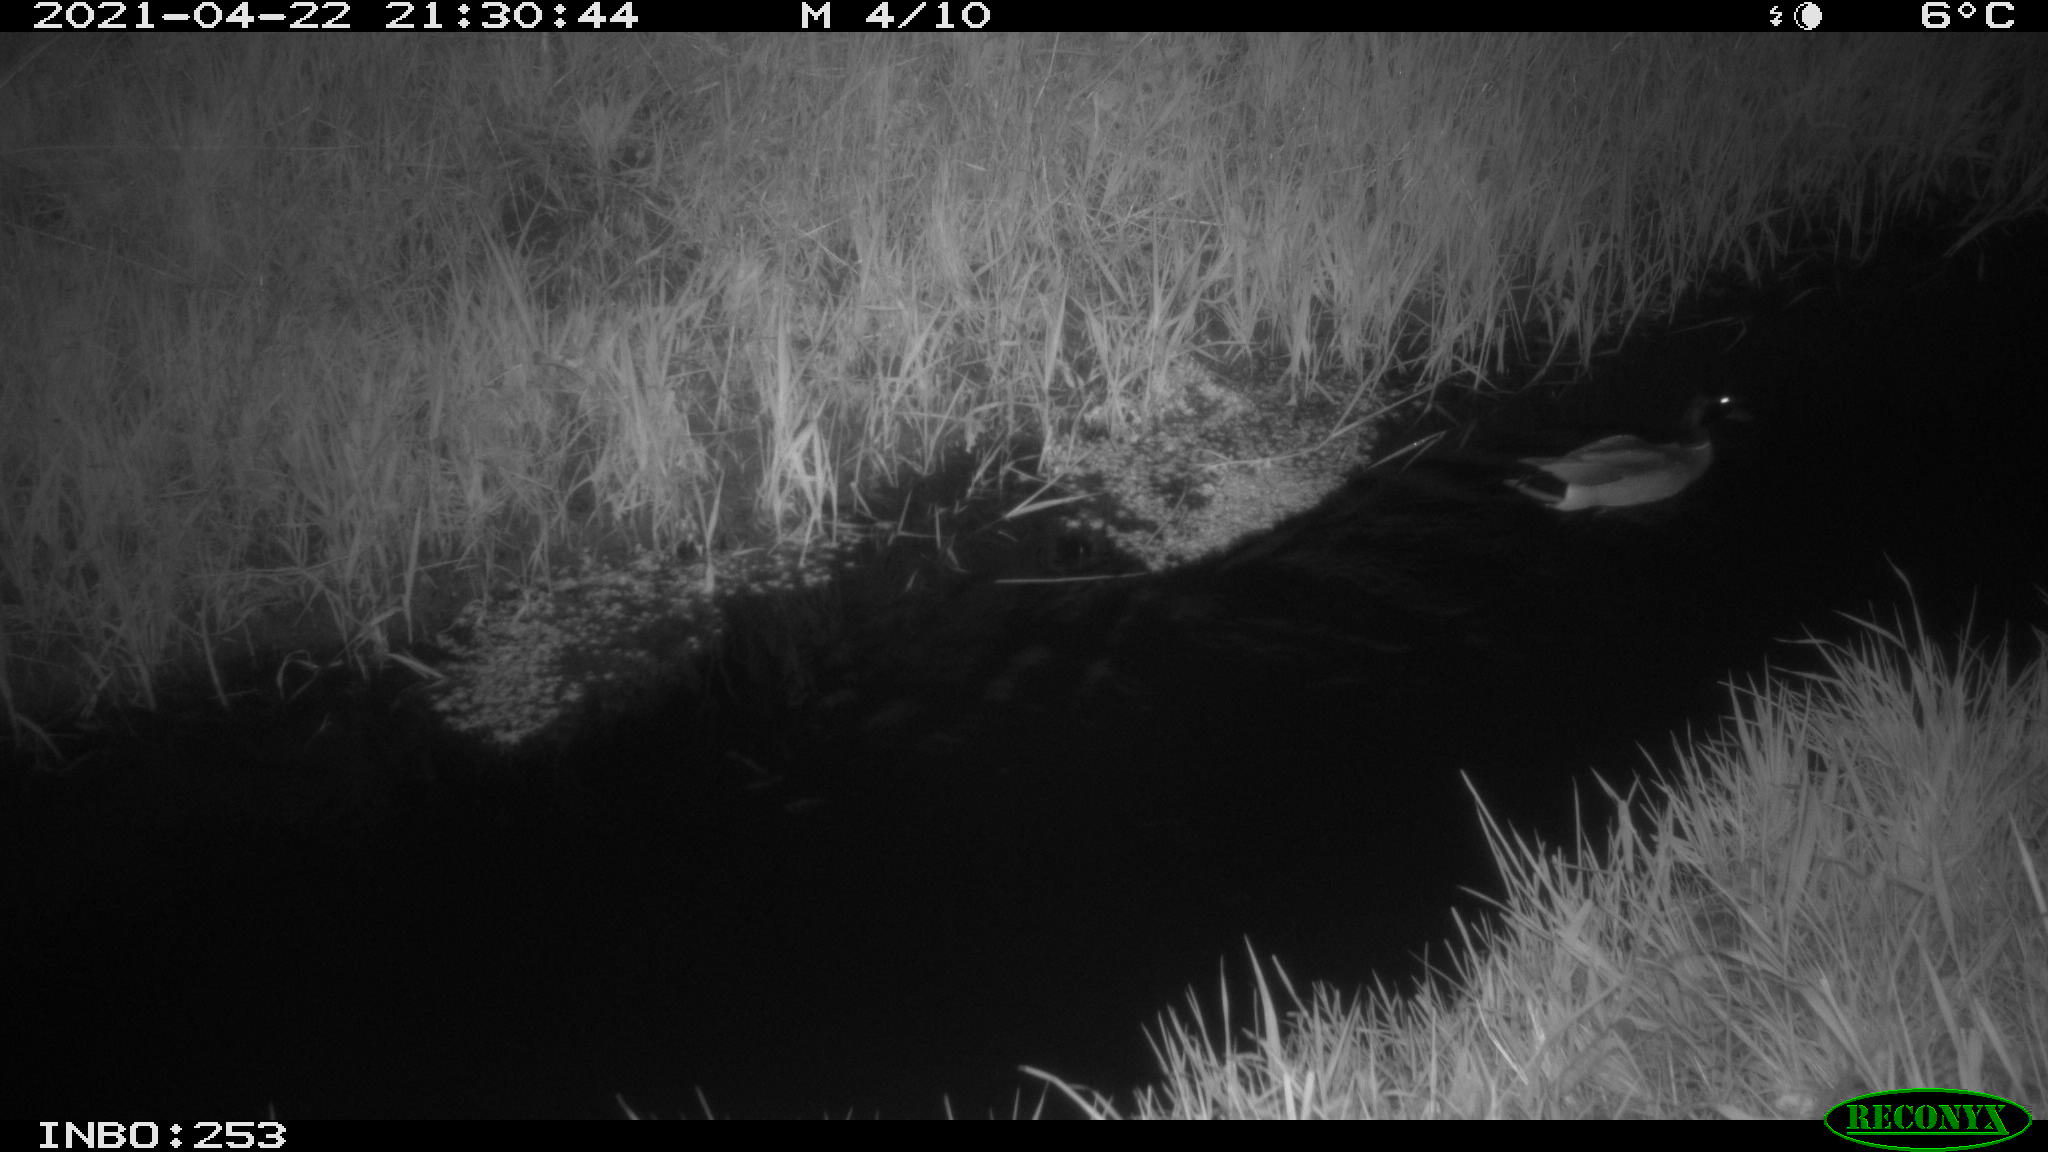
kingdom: Animalia
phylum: Chordata
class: Aves
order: Anseriformes
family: Anatidae
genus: Anas
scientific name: Anas platyrhynchos
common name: Mallard
